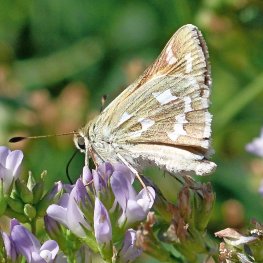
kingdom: Animalia
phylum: Arthropoda
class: Insecta
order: Lepidoptera
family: Hesperiidae
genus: Hesperia
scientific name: Hesperia juba
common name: Juba Skipper
